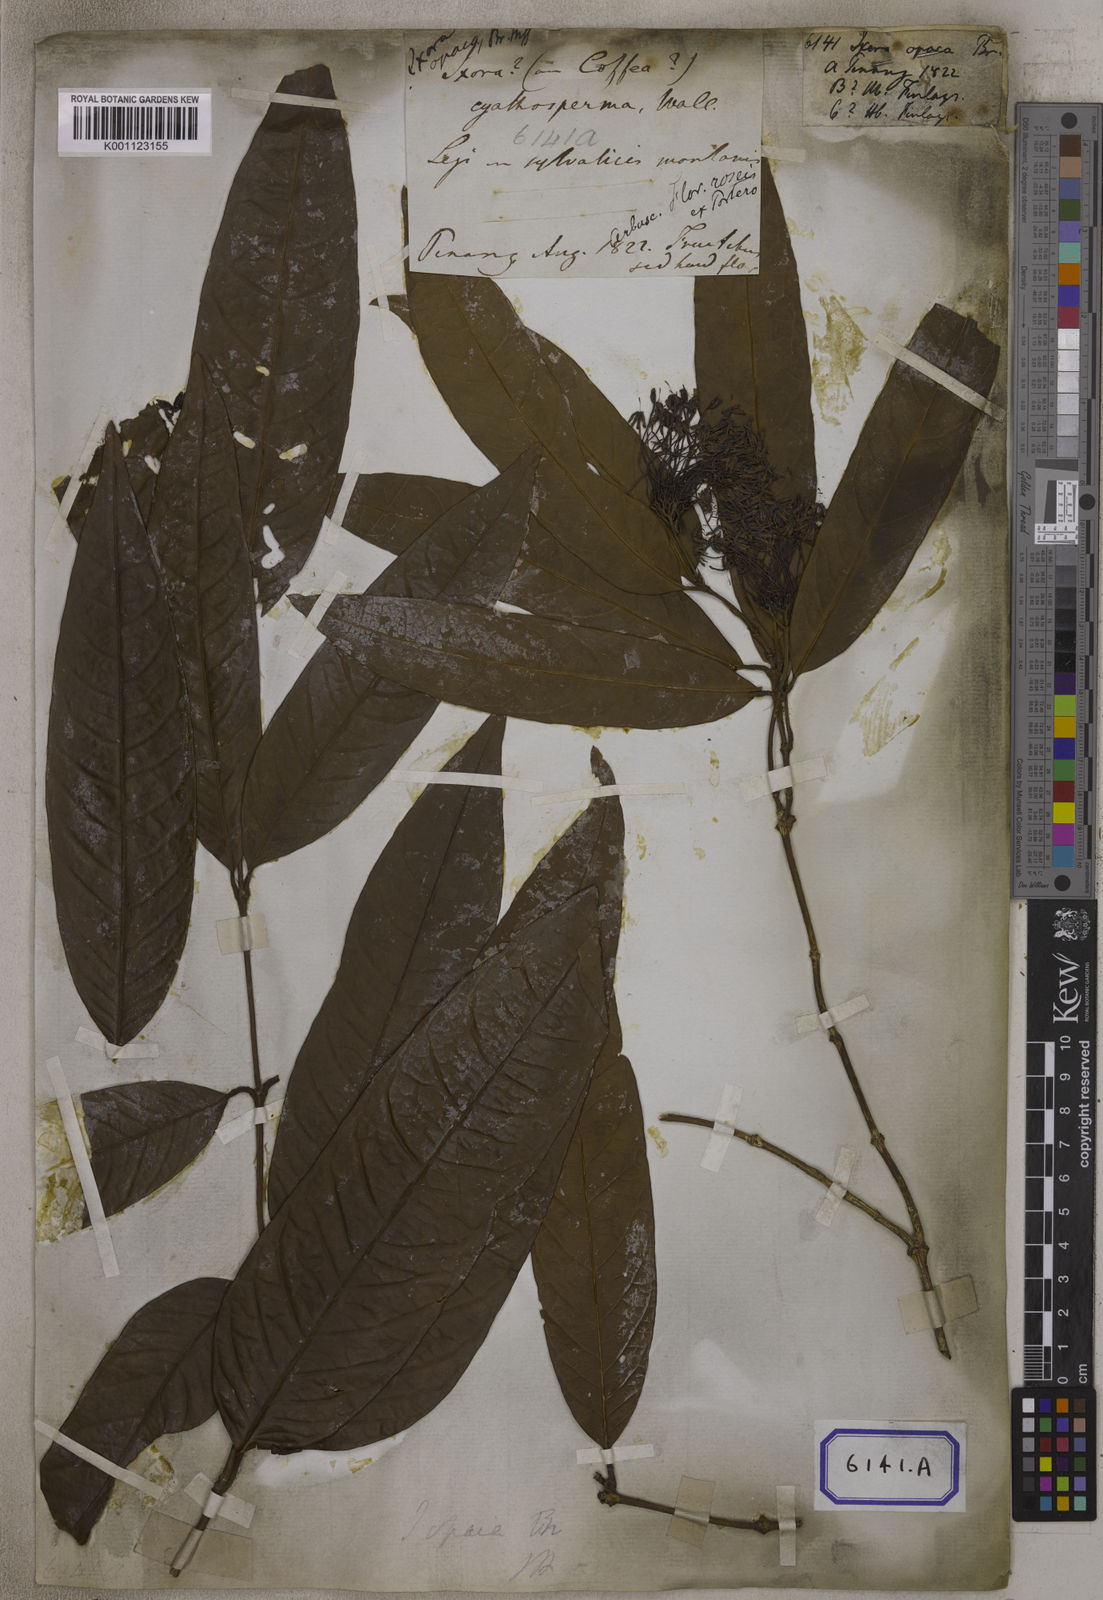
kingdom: Plantae
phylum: Tracheophyta
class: Magnoliopsida
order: Gentianales
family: Rubiaceae
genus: Ixora
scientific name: Ixora
